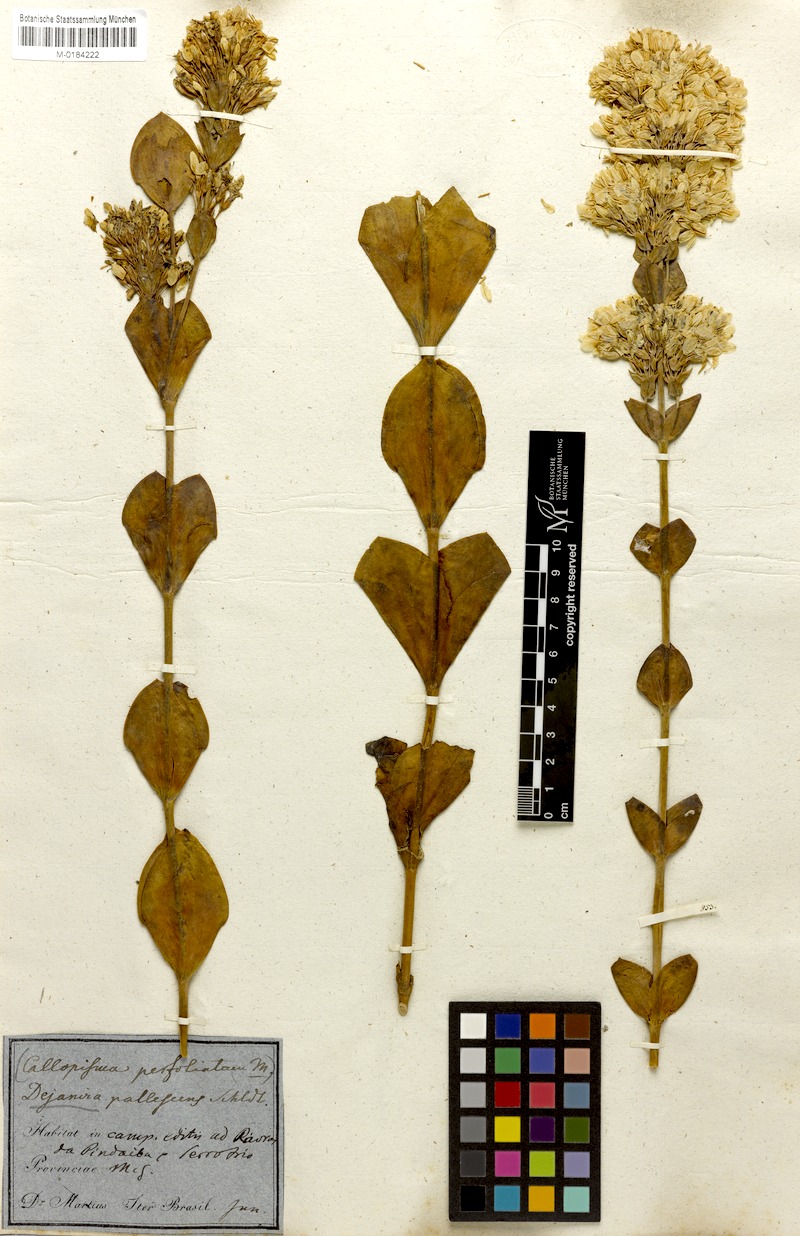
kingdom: Plantae
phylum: Tracheophyta
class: Magnoliopsida
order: Gentianales
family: Gentianaceae
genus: Deianira
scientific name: Deianira pallescens
